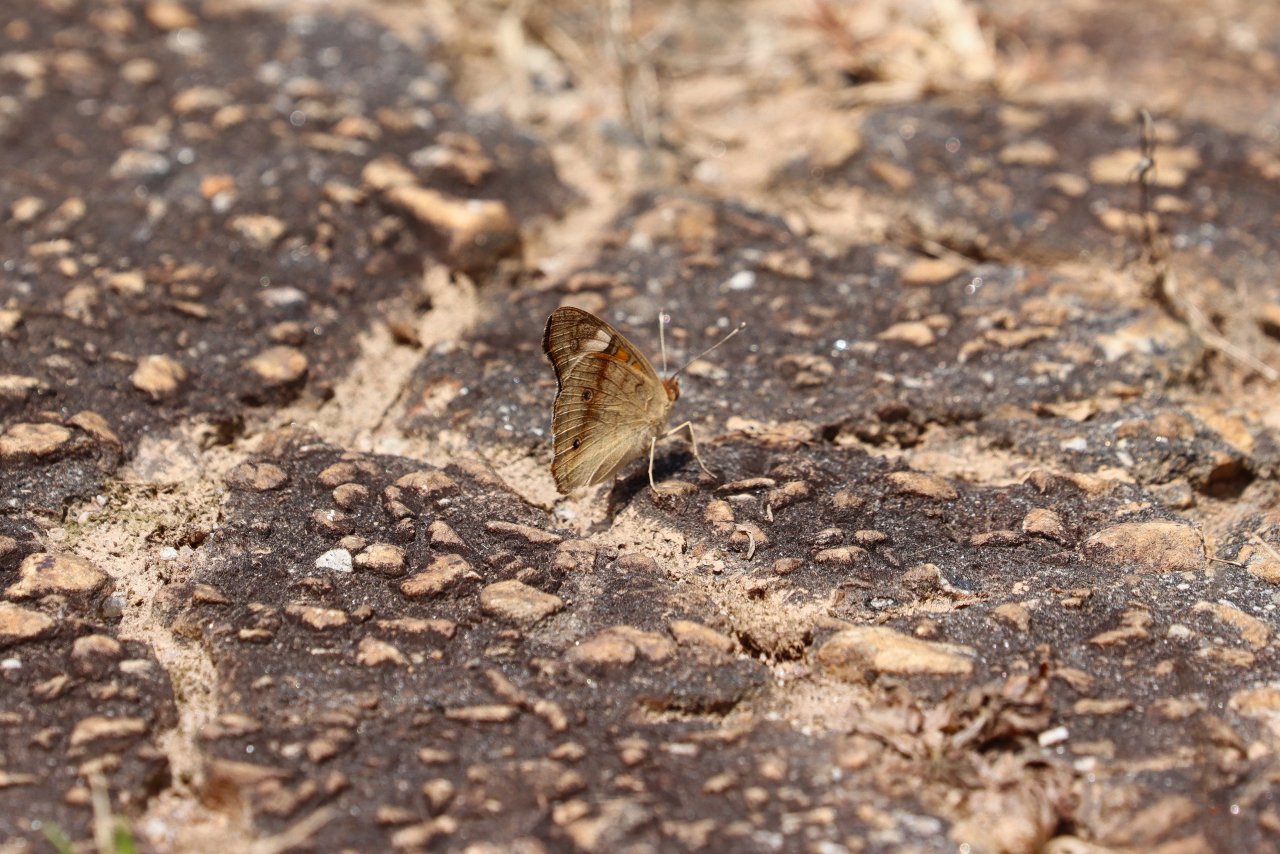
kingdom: Animalia
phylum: Arthropoda
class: Insecta
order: Lepidoptera
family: Nymphalidae
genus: Junonia
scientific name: Junonia coenia
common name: Common Buckeye
